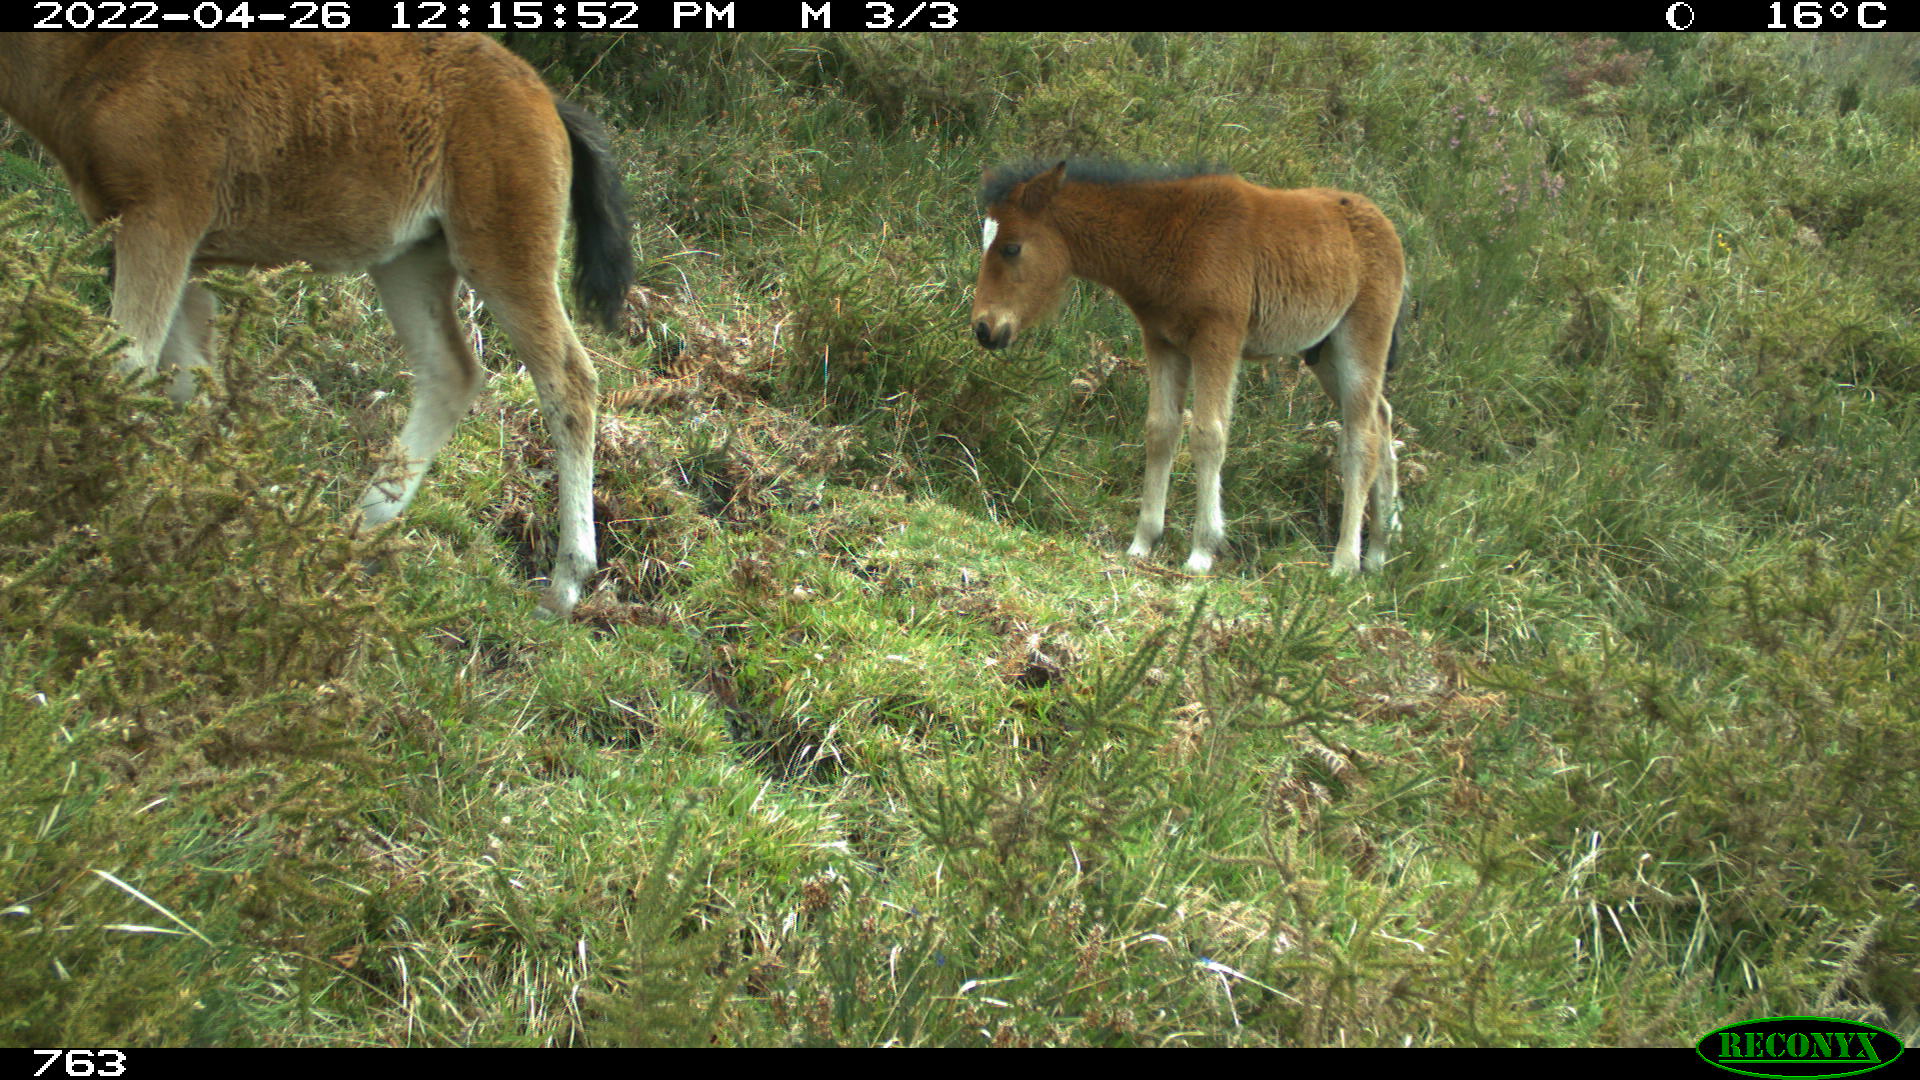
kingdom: Animalia
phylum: Chordata
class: Mammalia
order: Perissodactyla
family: Equidae
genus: Equus
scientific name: Equus caballus
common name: Horse
